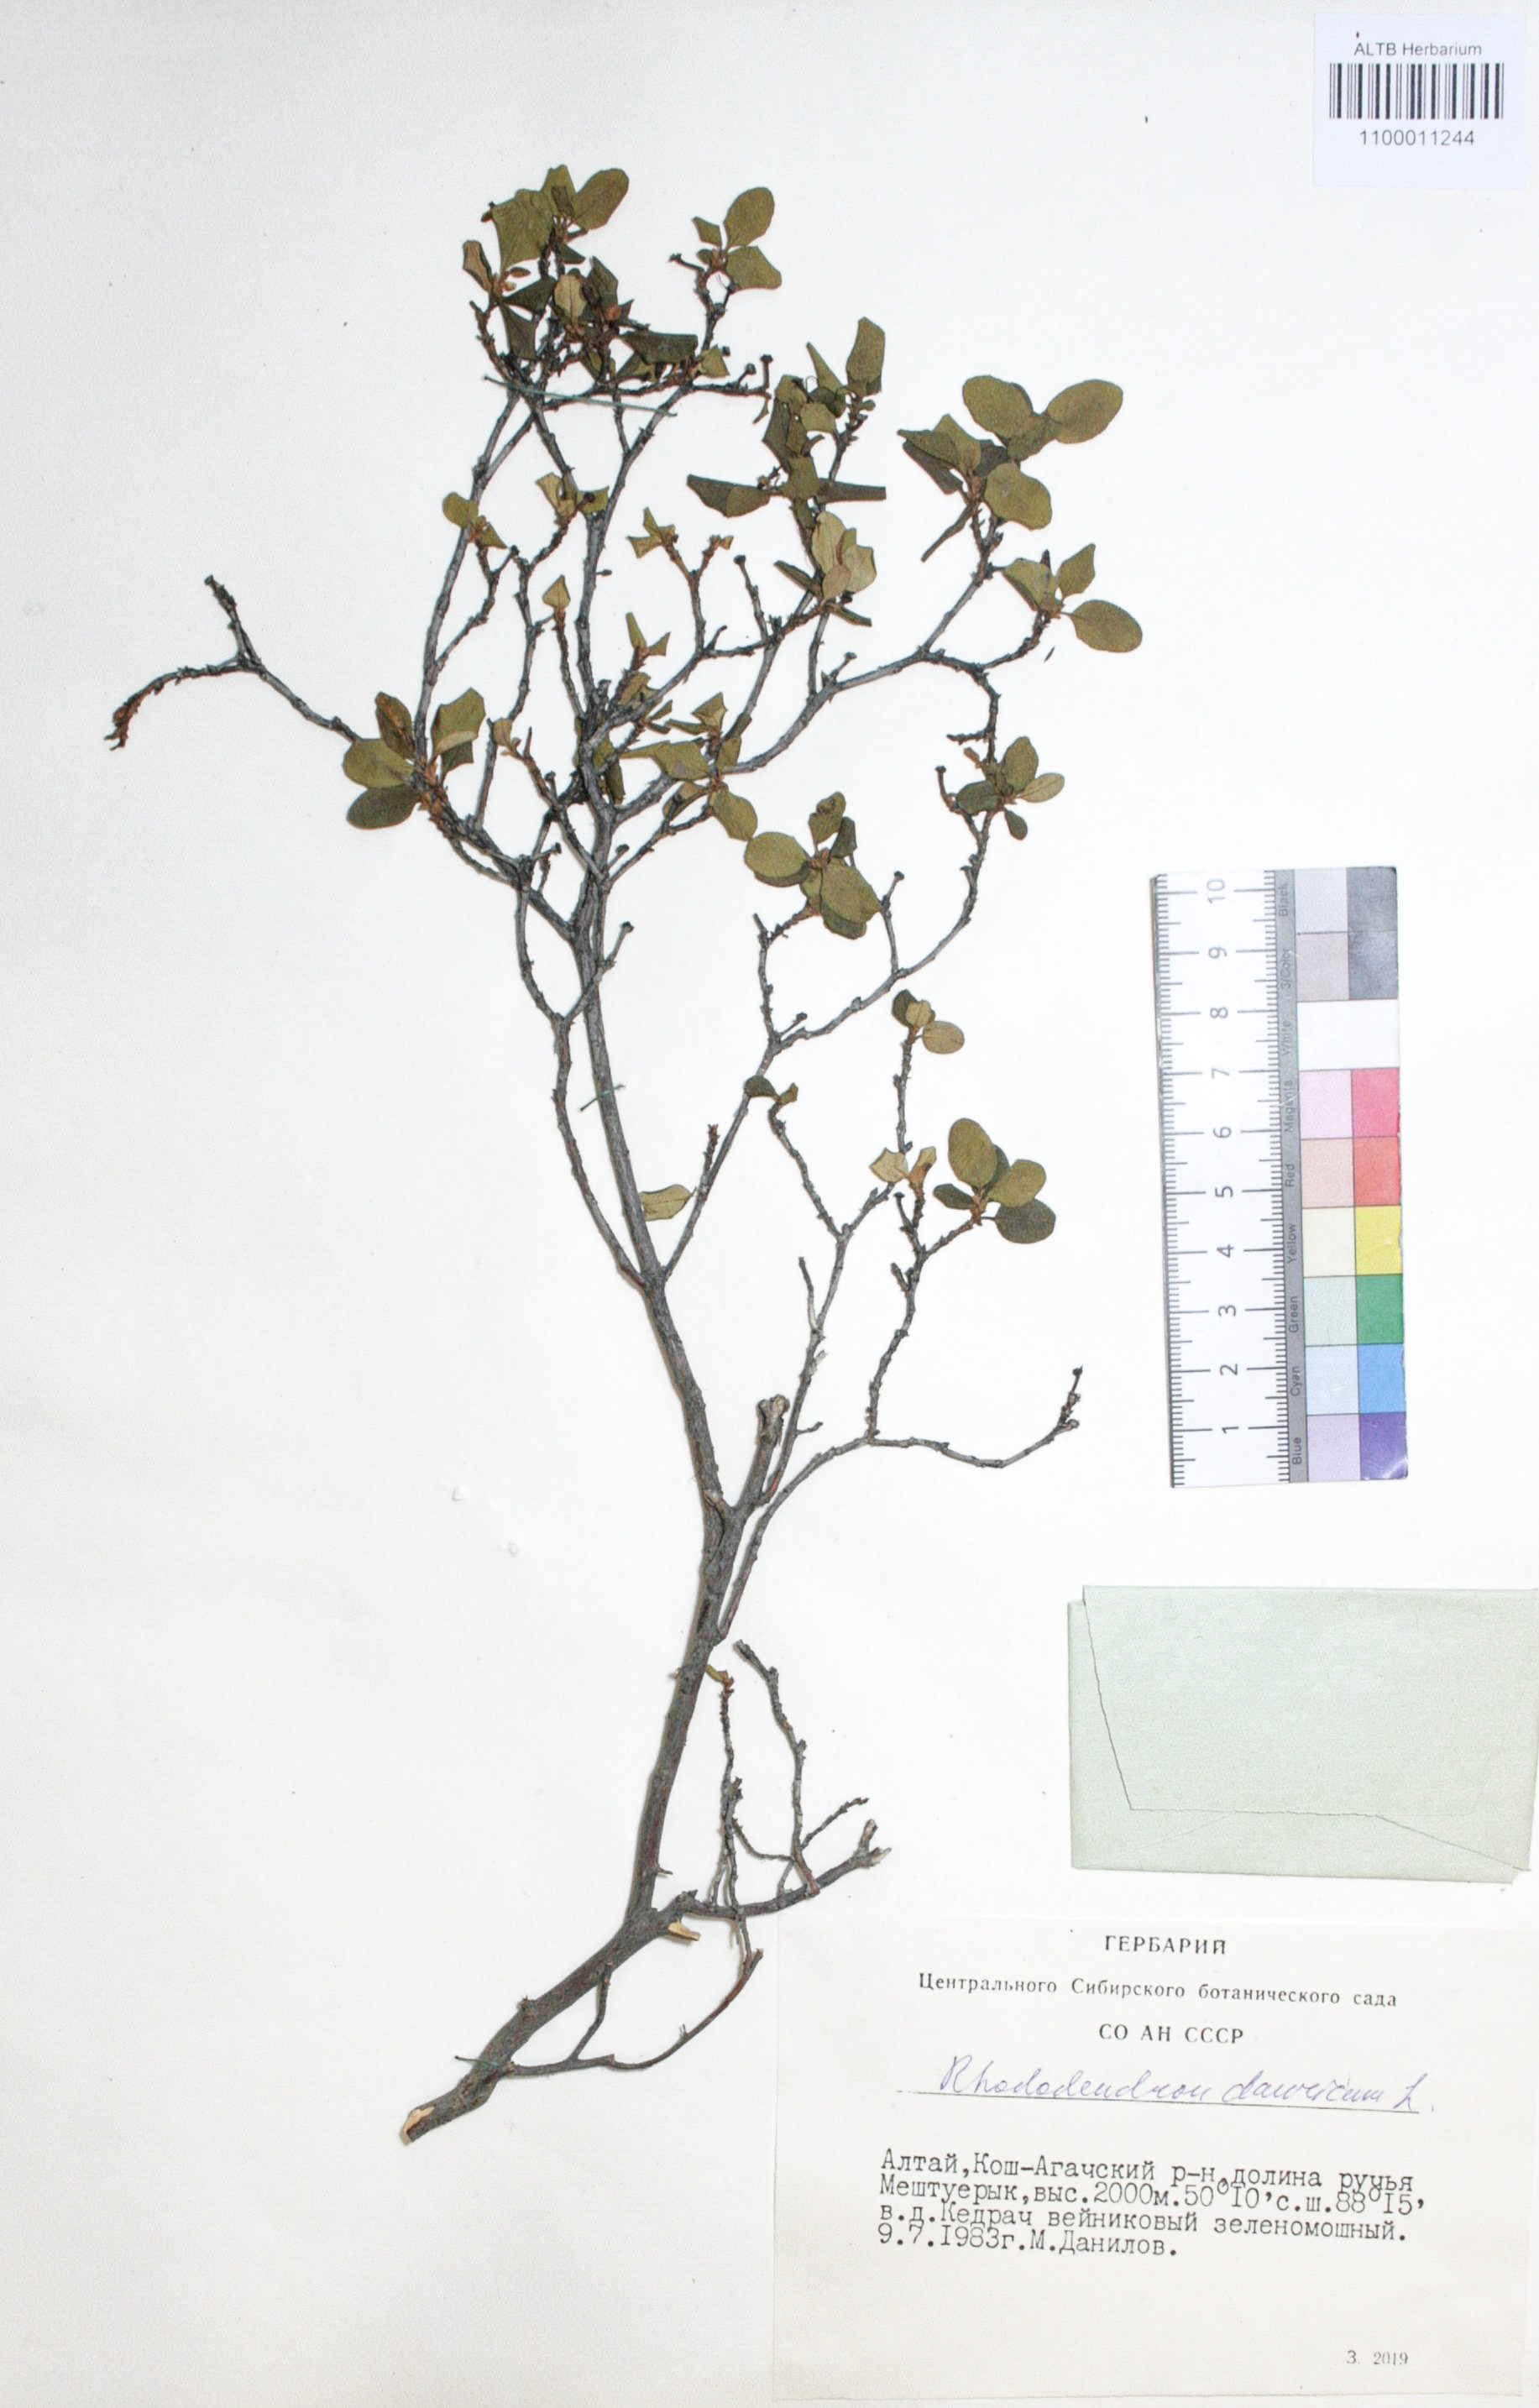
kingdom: Plantae
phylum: Tracheophyta
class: Magnoliopsida
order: Ericales
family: Ericaceae
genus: Rhododendron
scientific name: Rhododendron dahuricum
